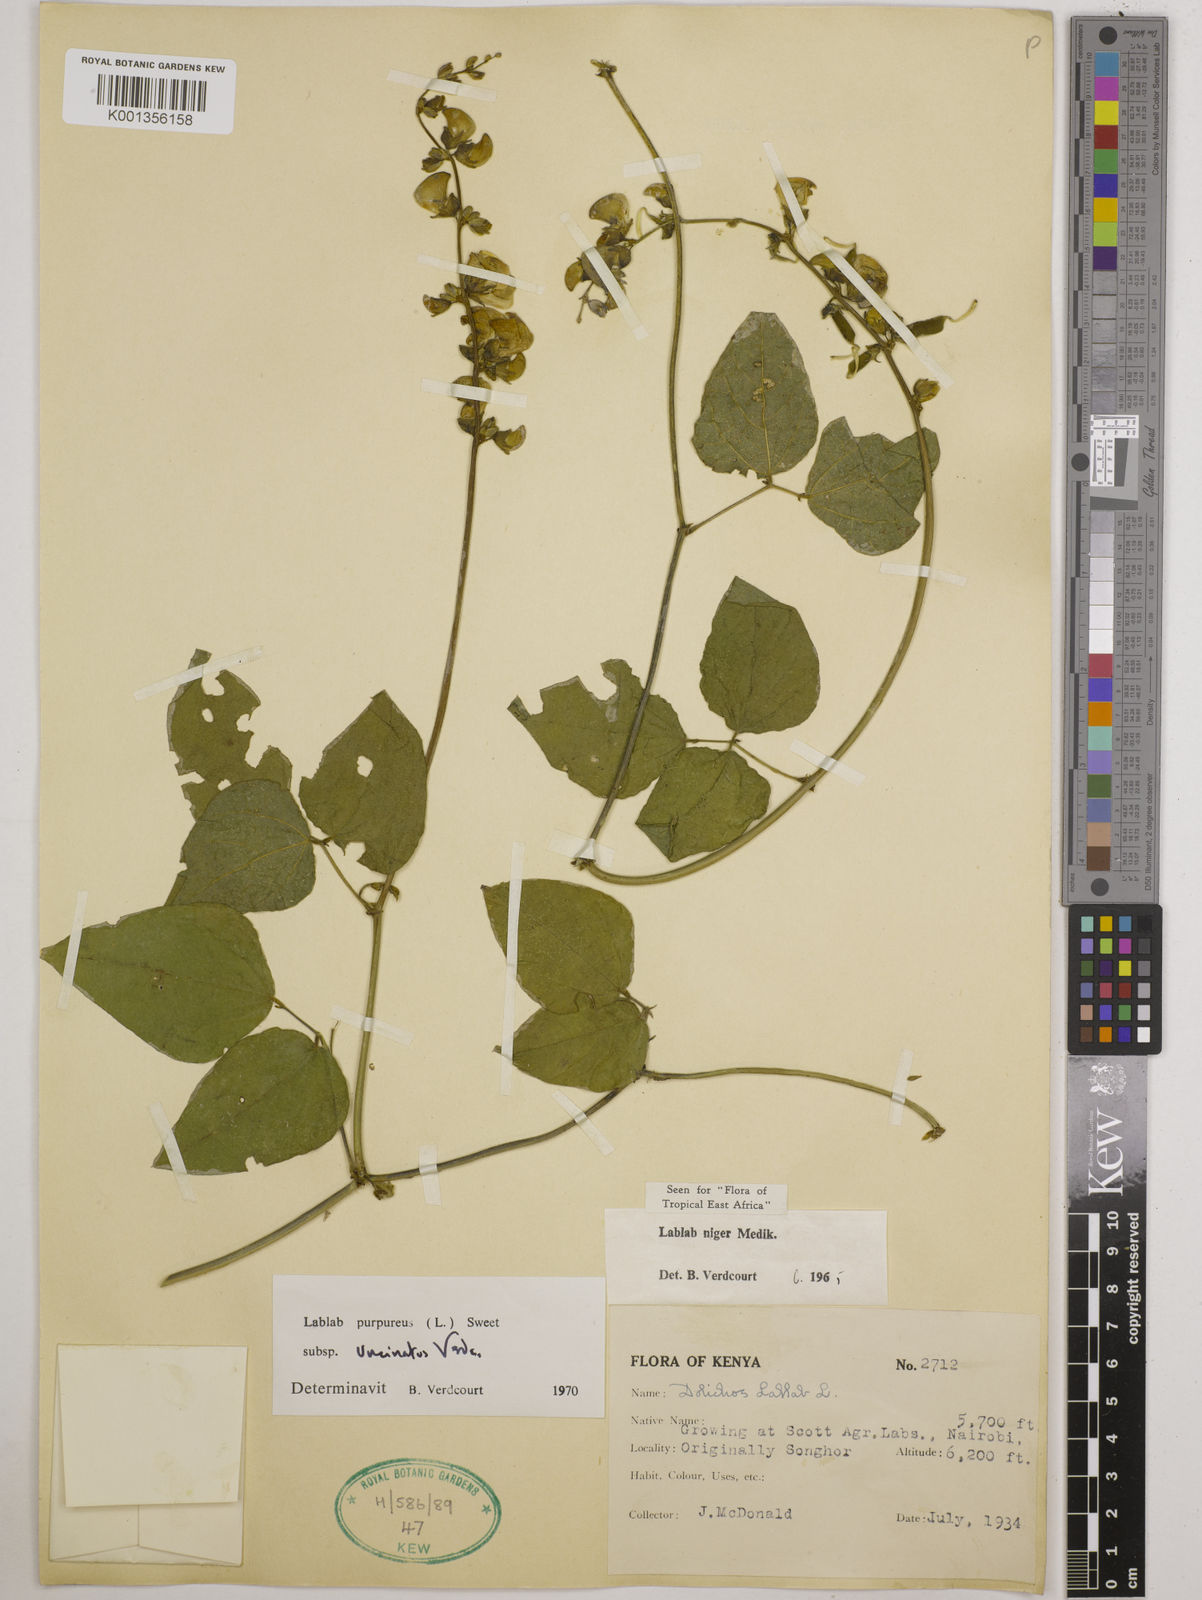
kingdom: Plantae
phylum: Tracheophyta
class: Magnoliopsida
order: Fabales
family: Fabaceae
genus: Lablab
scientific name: Lablab purpureus
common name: Lablab-bean
